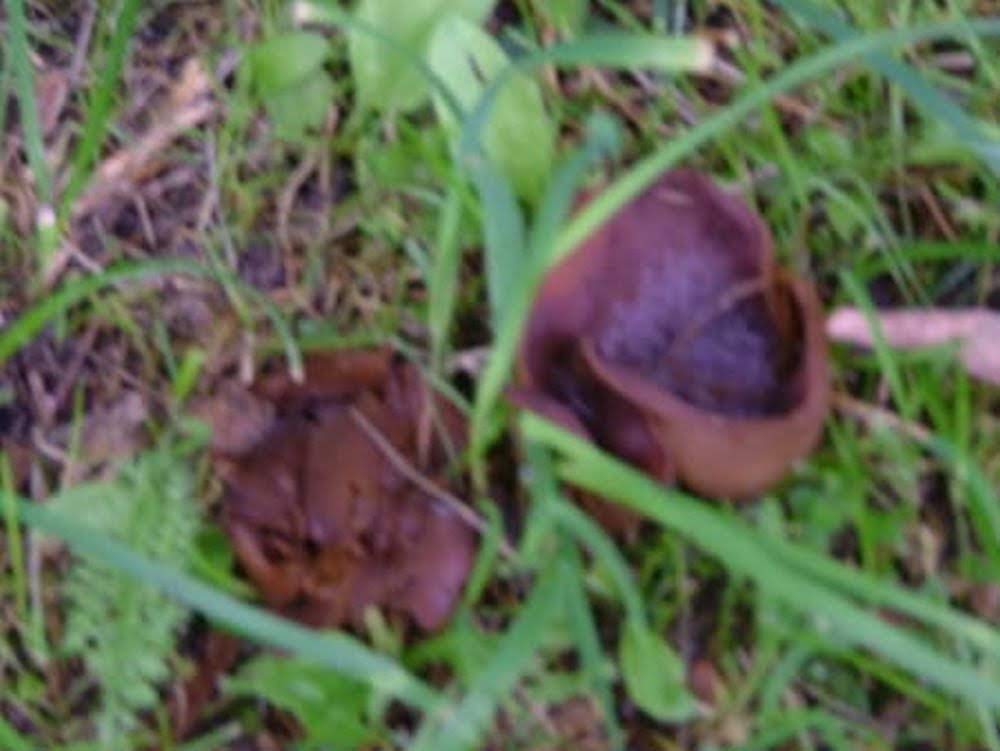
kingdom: Fungi
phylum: Ascomycota
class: Pezizomycetes
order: Pezizales
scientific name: Pezizales
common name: bægersvampordenen
